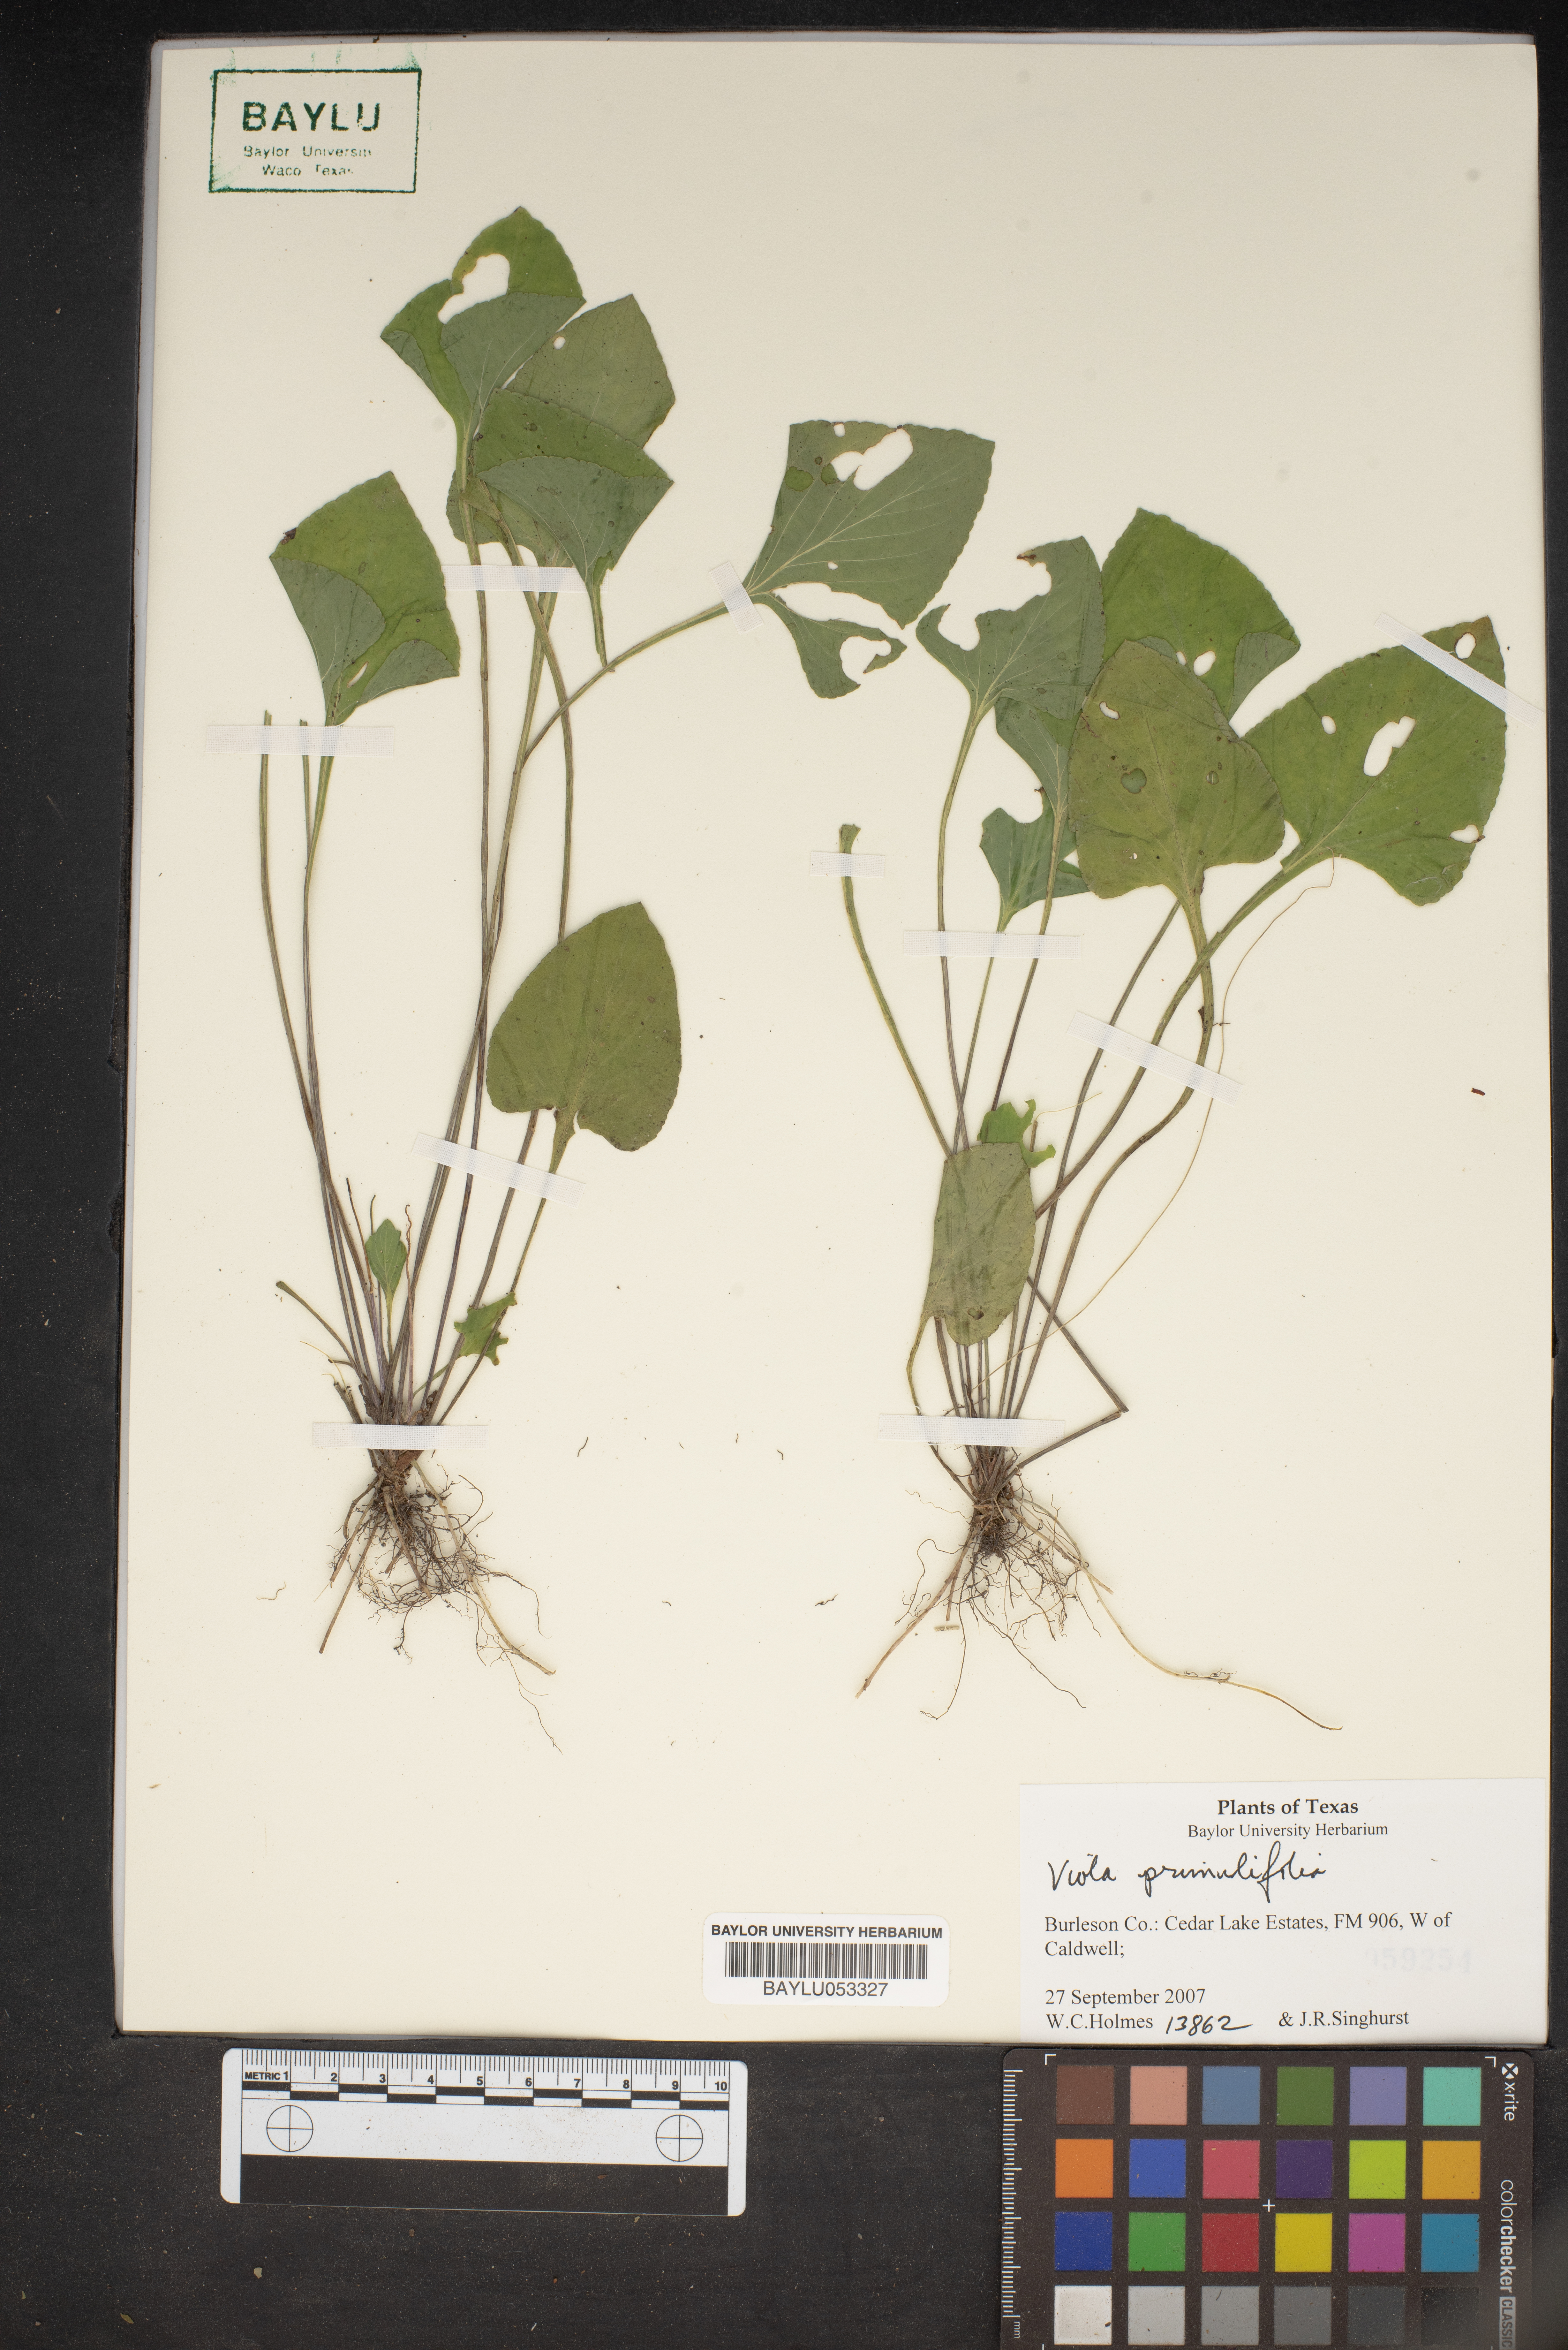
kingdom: Plantae
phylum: Tracheophyta
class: Magnoliopsida
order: Malpighiales
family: Violaceae
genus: Viola
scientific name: Viola primulifolia
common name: Primrose-leaf violet
